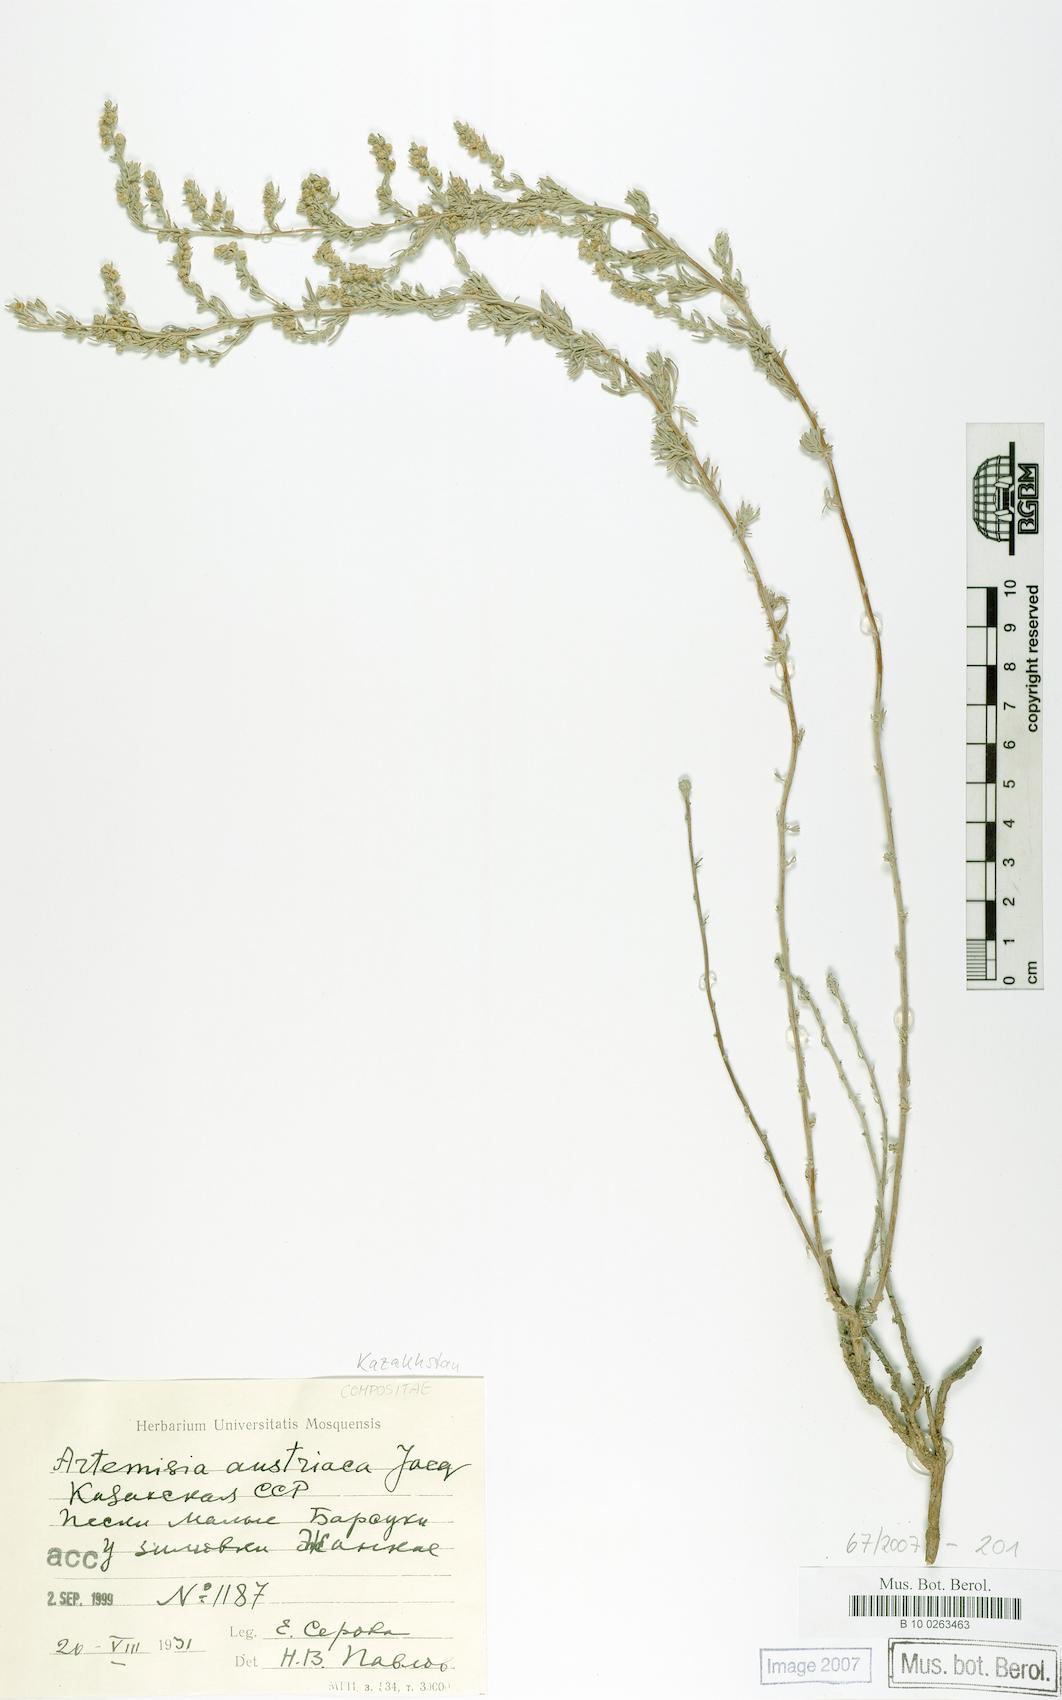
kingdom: Plantae
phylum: Tracheophyta
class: Magnoliopsida
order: Asterales
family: Asteraceae
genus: Artemisia
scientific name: Artemisia austriaca
